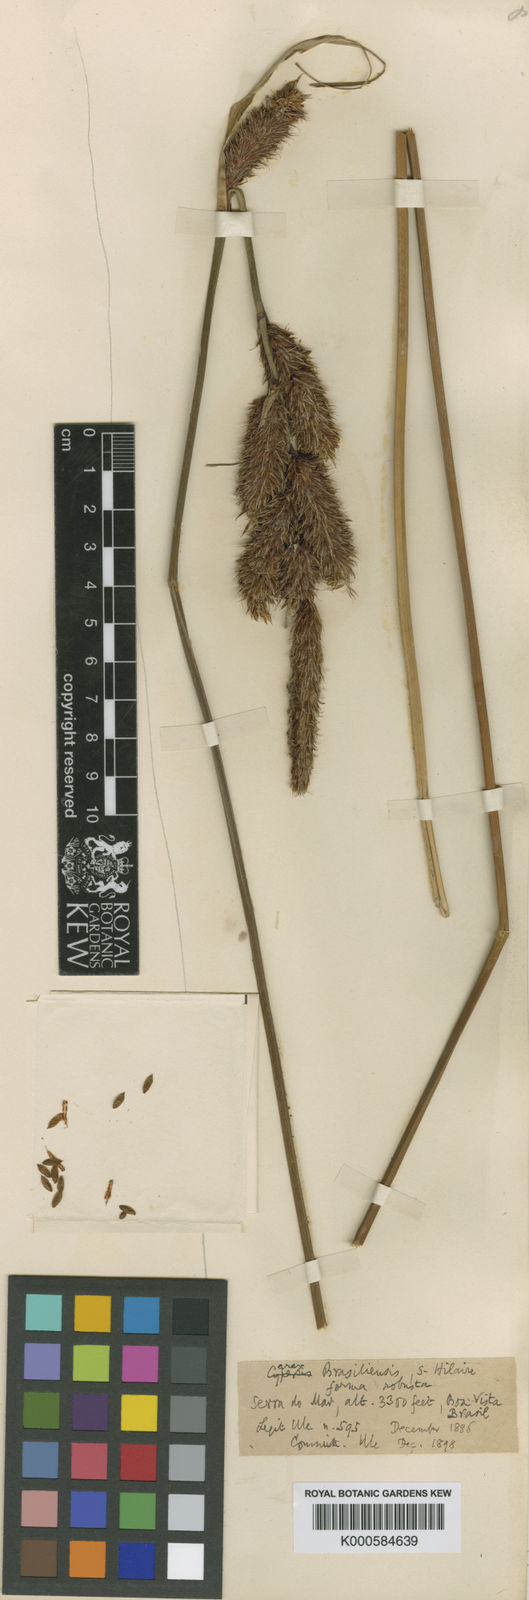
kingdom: Plantae
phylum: Tracheophyta
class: Liliopsida
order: Poales
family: Cyperaceae
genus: Carex
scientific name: Carex brasiliensis
